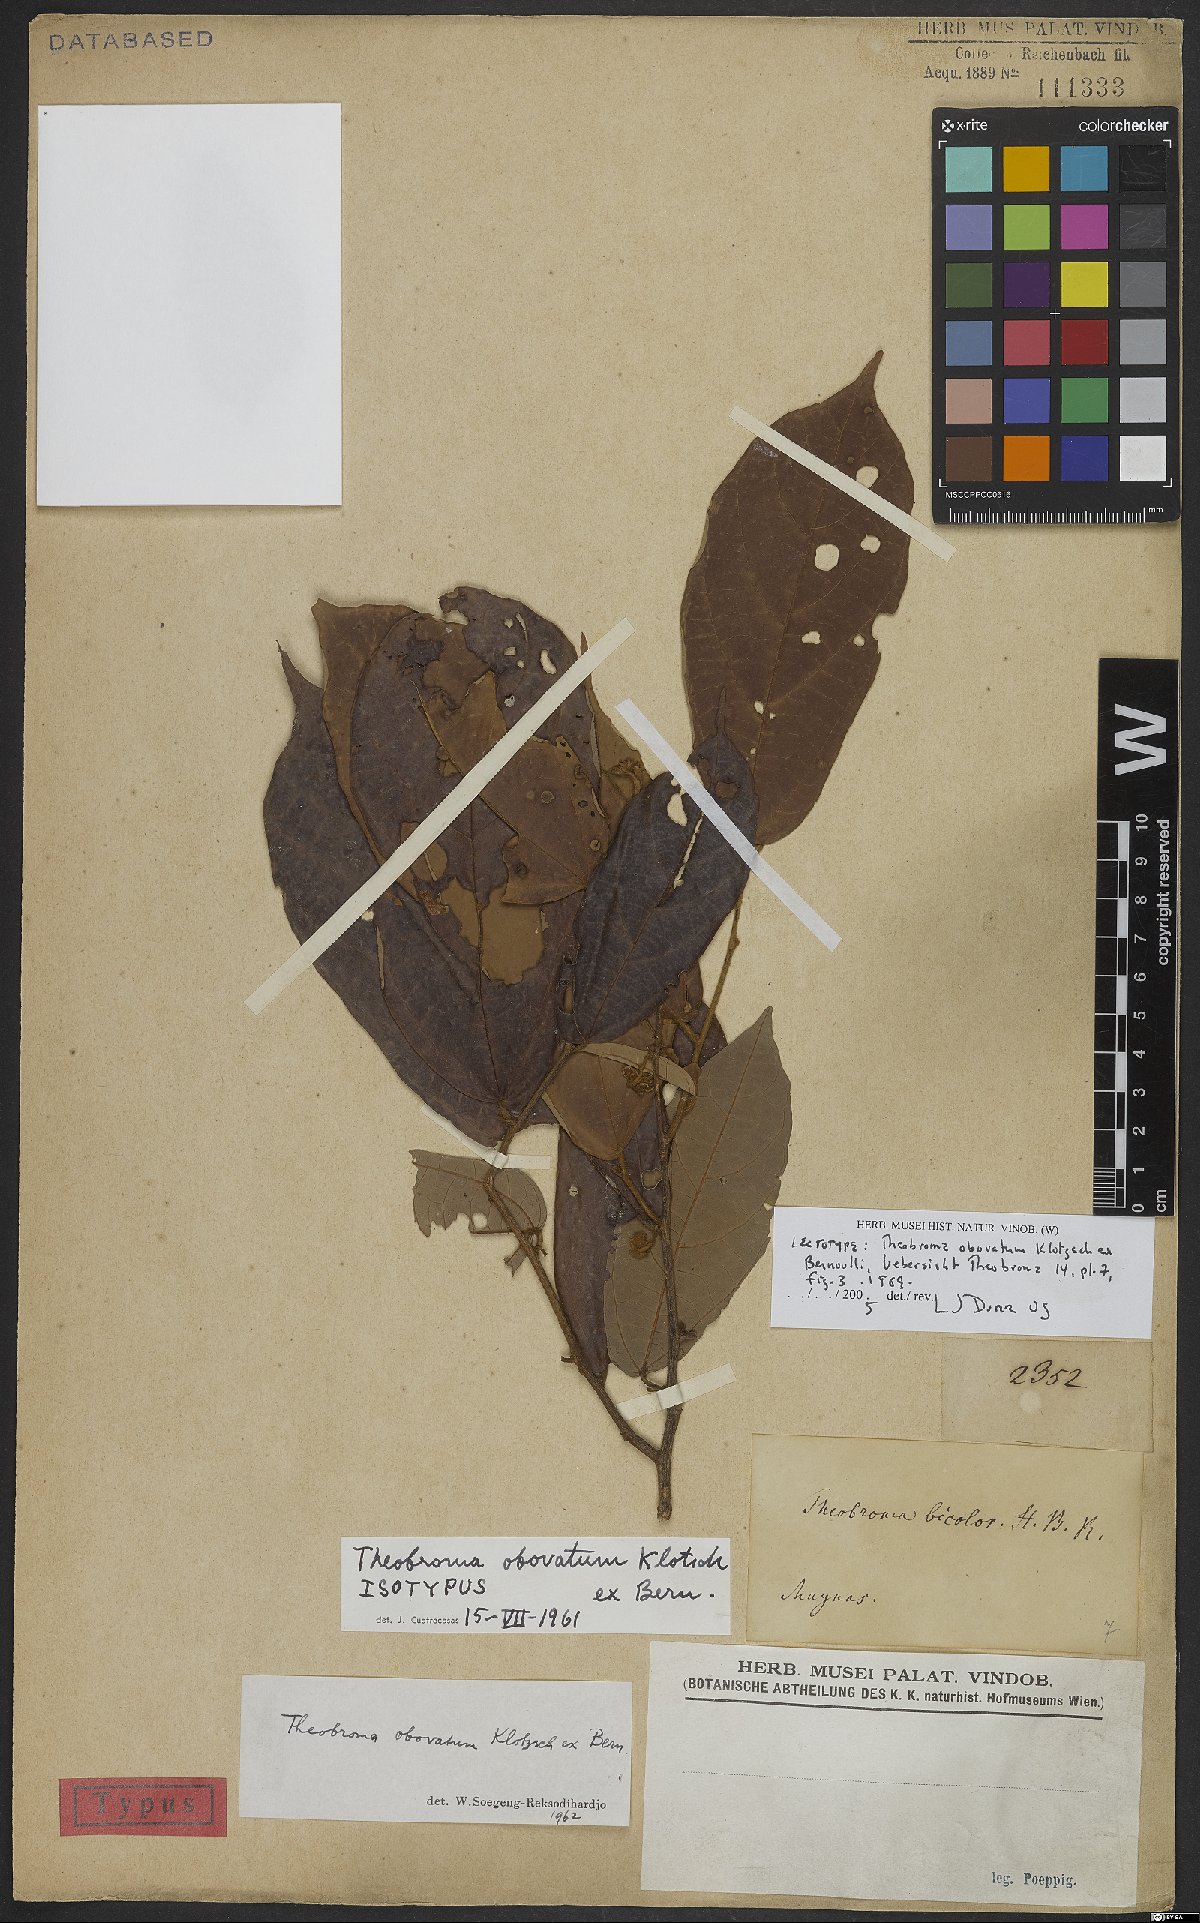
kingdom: Plantae
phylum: Tracheophyta
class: Magnoliopsida
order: Malvales
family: Malvaceae
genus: Theobroma
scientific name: Theobroma obovatum
